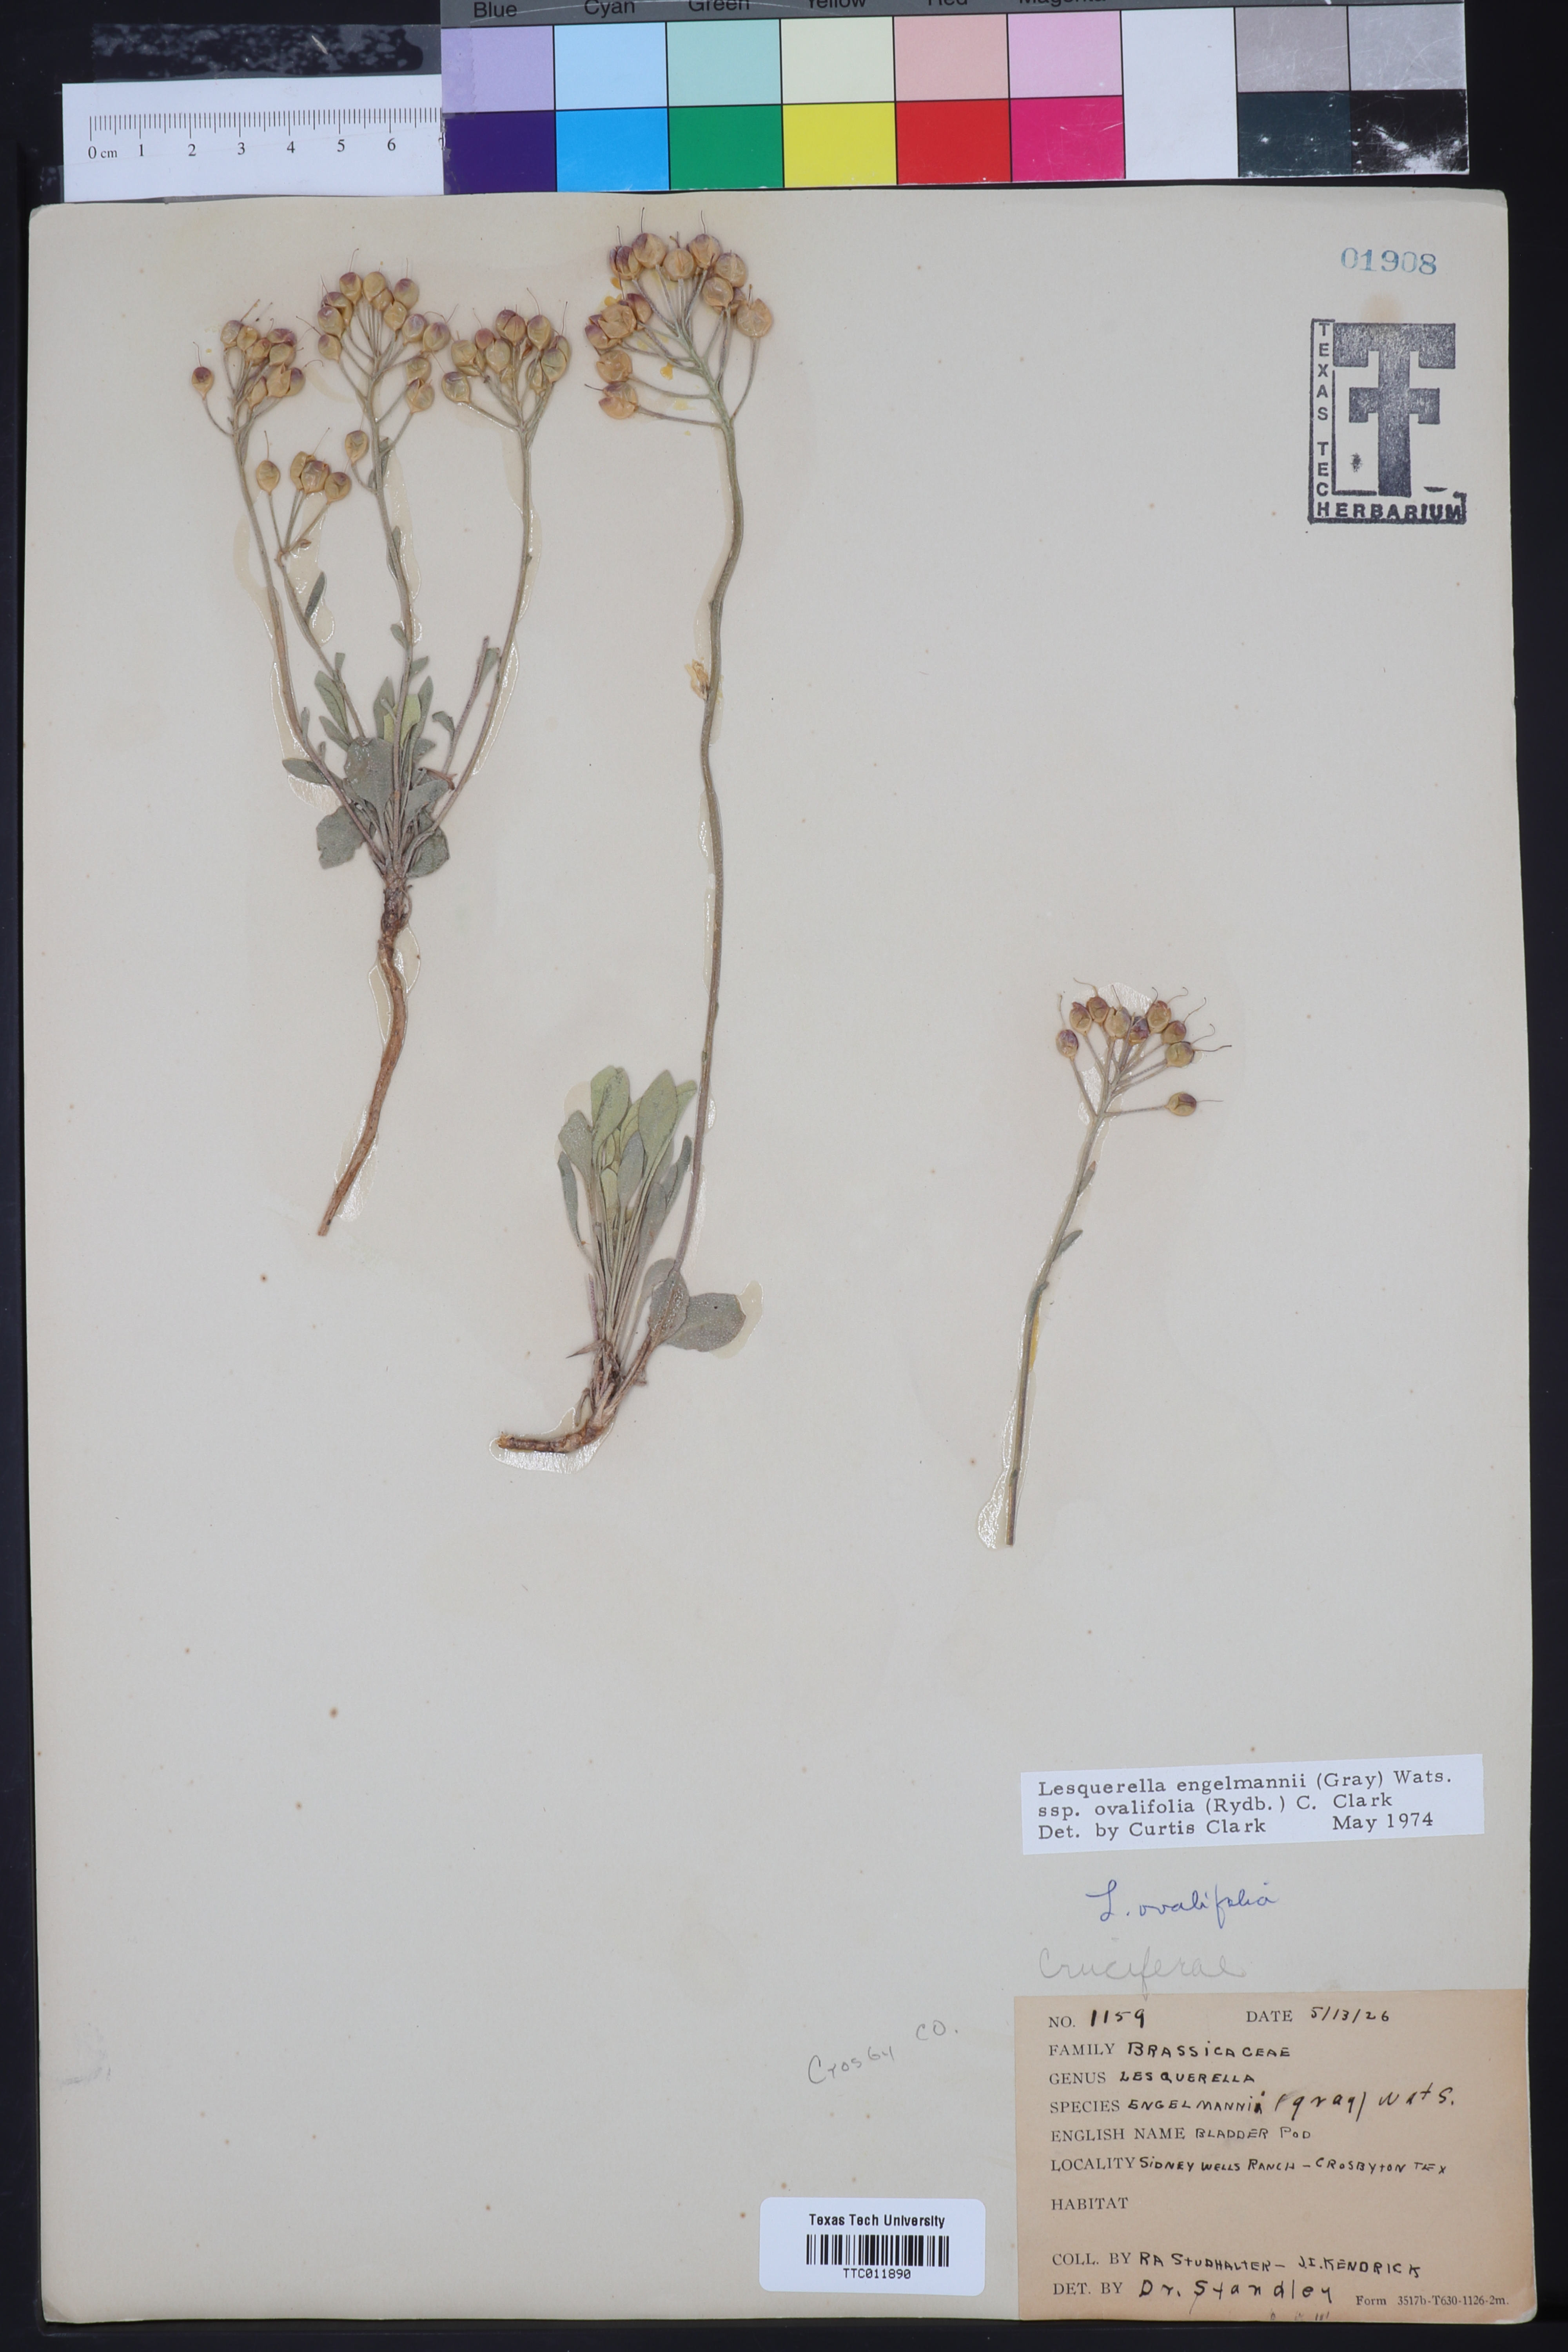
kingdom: Plantae
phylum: Tracheophyta
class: Magnoliopsida
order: Brassicales
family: Brassicaceae
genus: Physaria
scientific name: Physaria ovalifolia
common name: Round-leaf bladderpod
